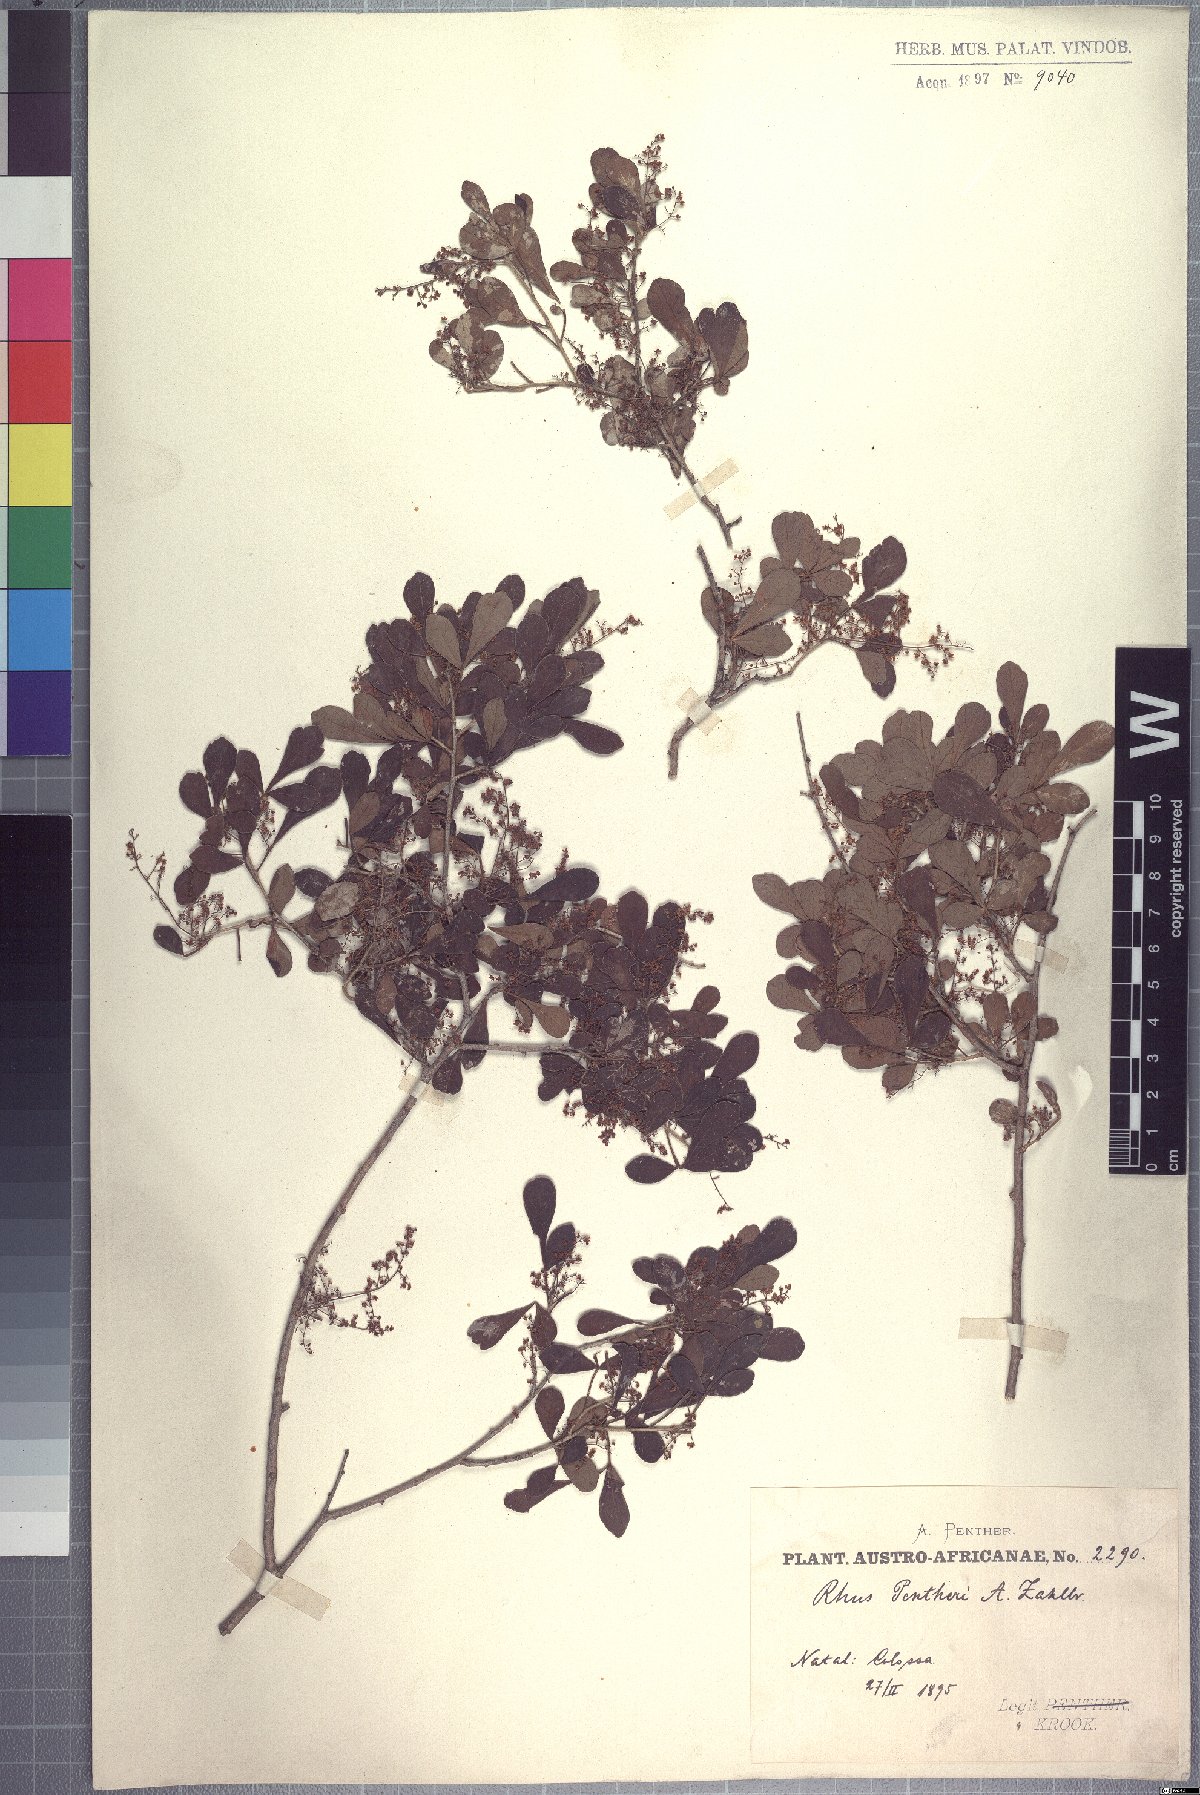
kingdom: Plantae
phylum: Tracheophyta
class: Magnoliopsida
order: Sapindales
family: Anacardiaceae
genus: Searsia
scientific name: Searsia pentheri
